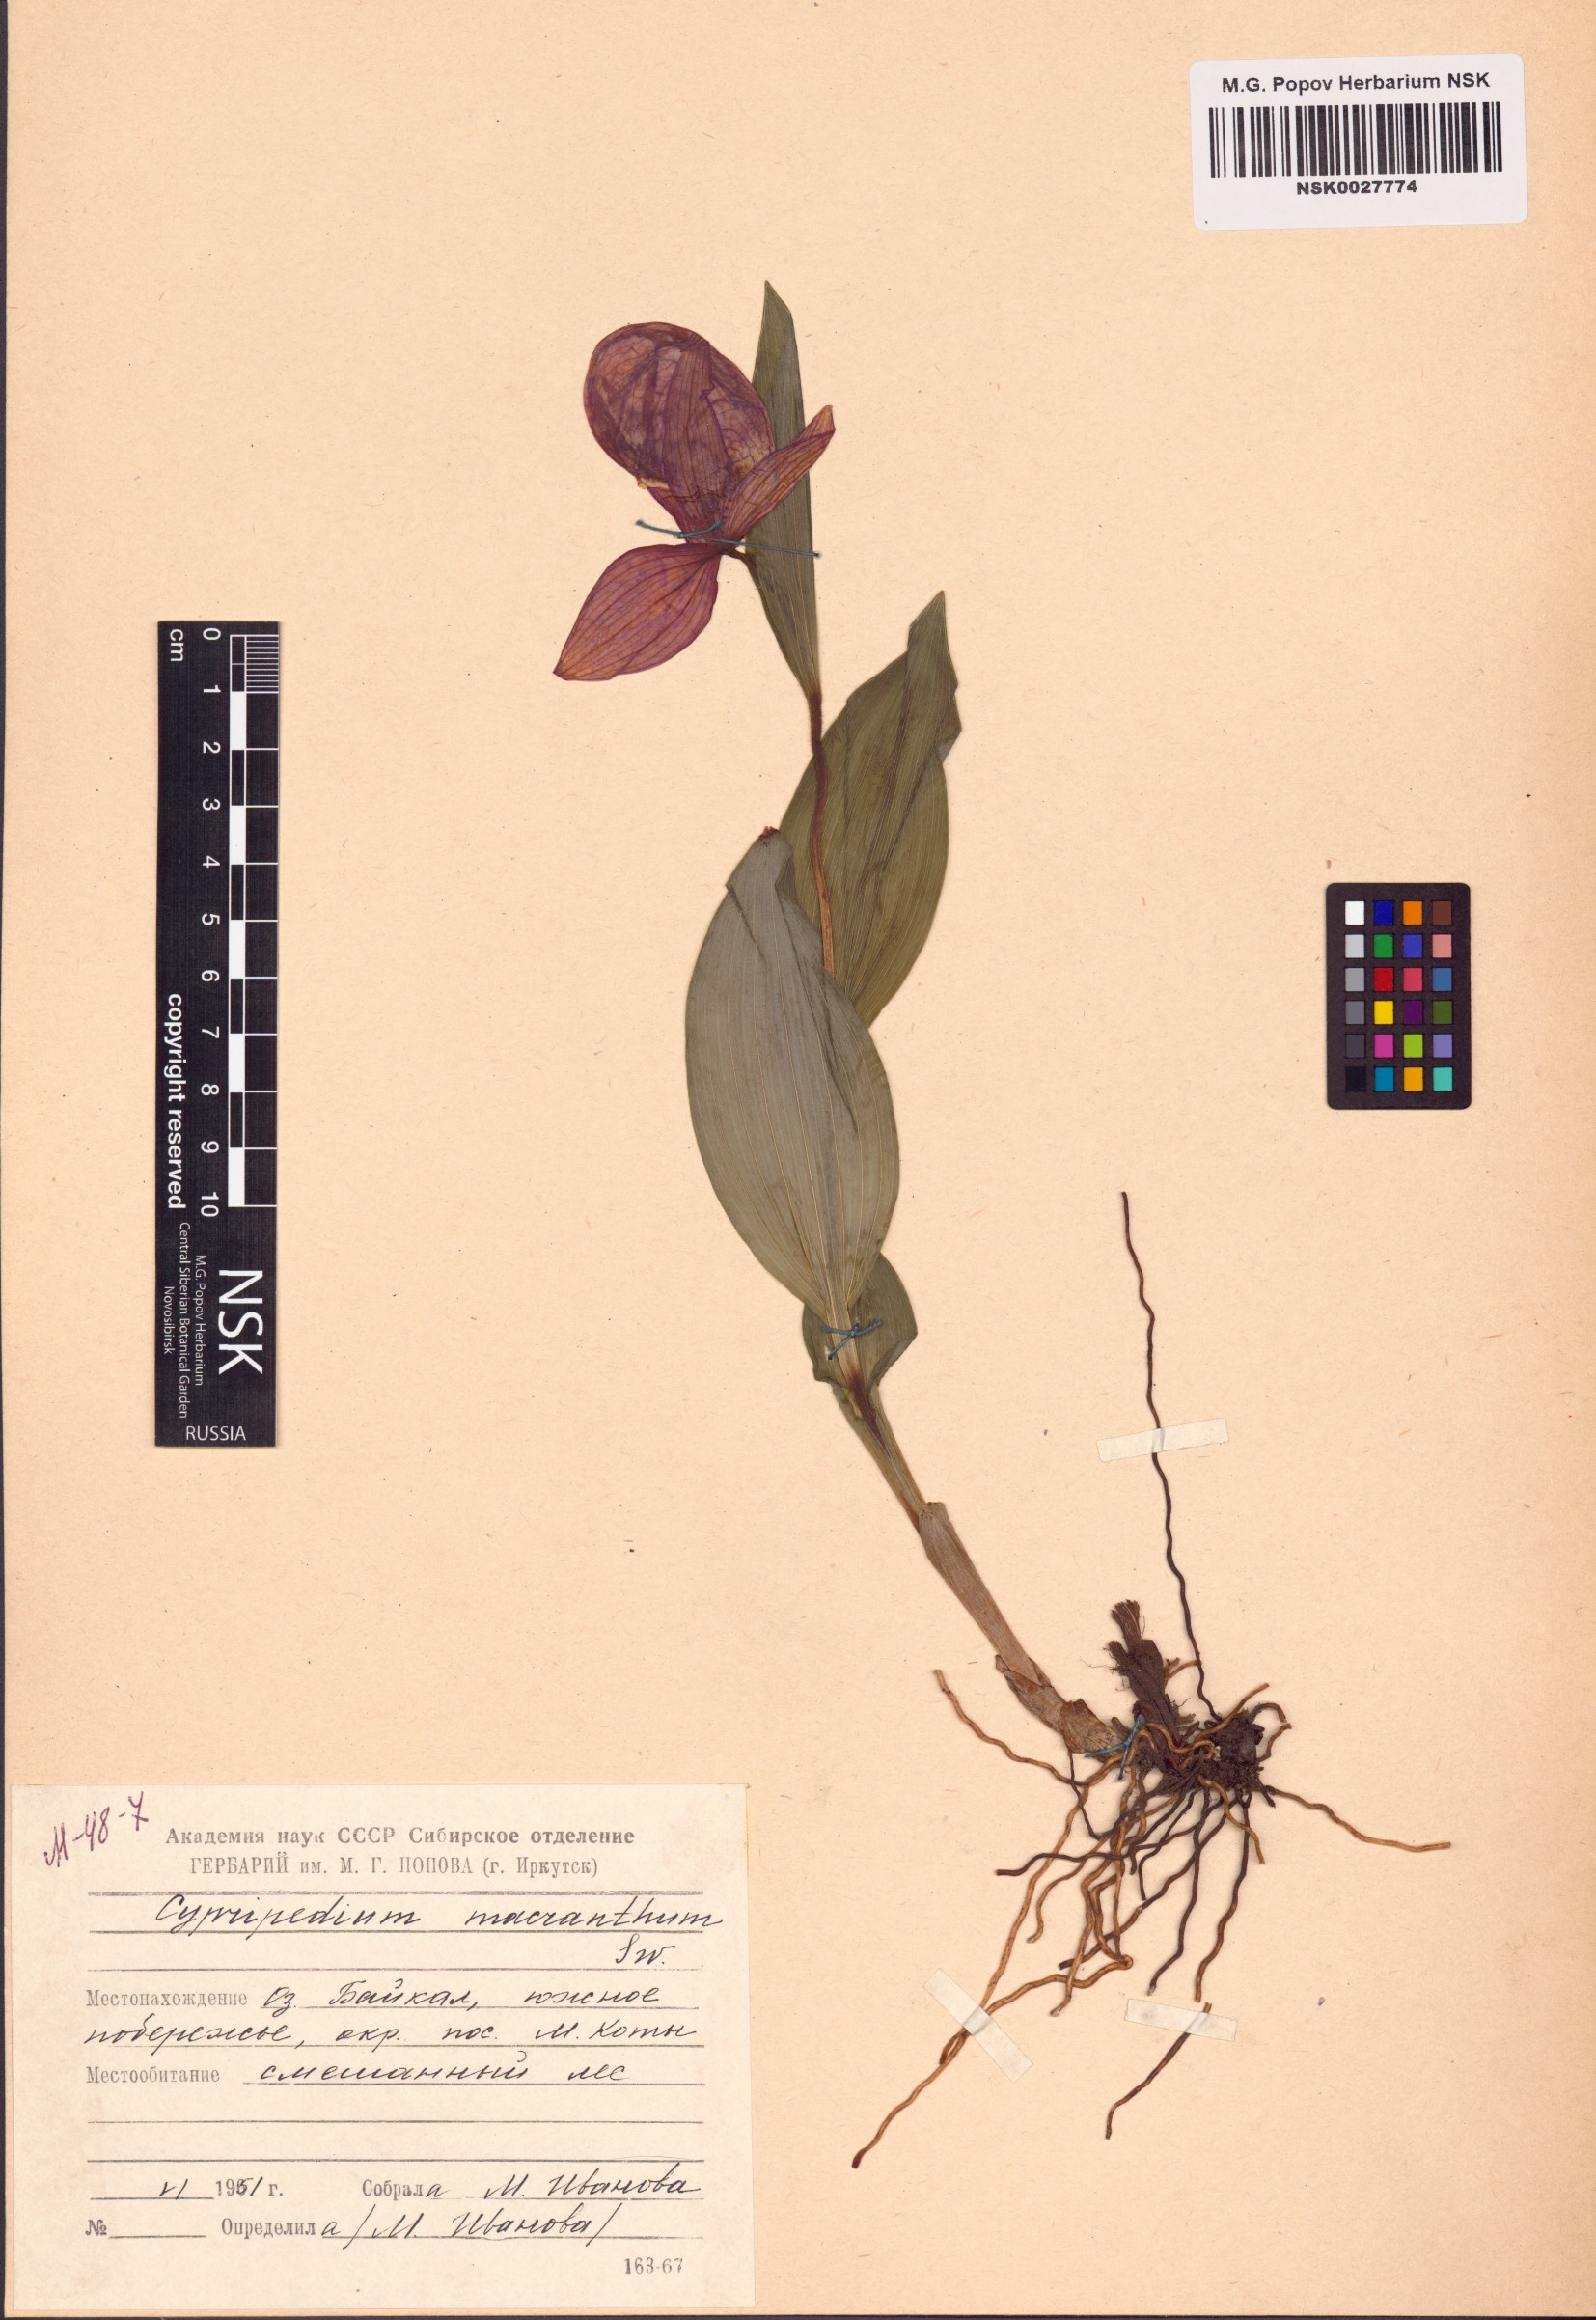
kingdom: Plantae
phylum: Tracheophyta
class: Liliopsida
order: Asparagales
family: Orchidaceae
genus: Cypripedium
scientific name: Cypripedium macranthos
